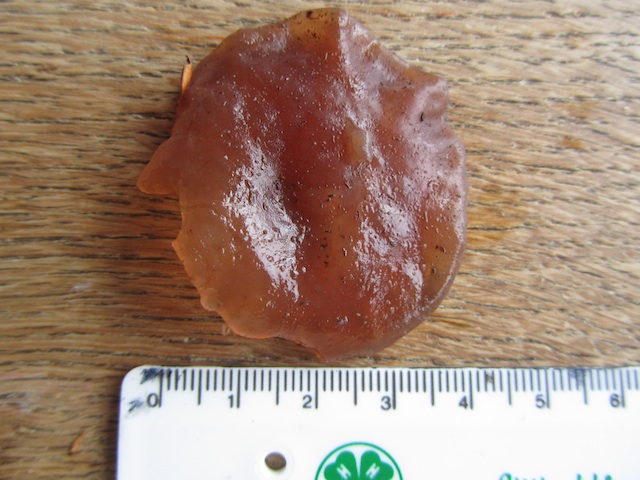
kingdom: Fungi
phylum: Basidiomycota
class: Agaricomycetes
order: Auriculariales
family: Auriculariaceae
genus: Auricularia
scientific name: Auricularia auricula-judae
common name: almindelig judasøre
